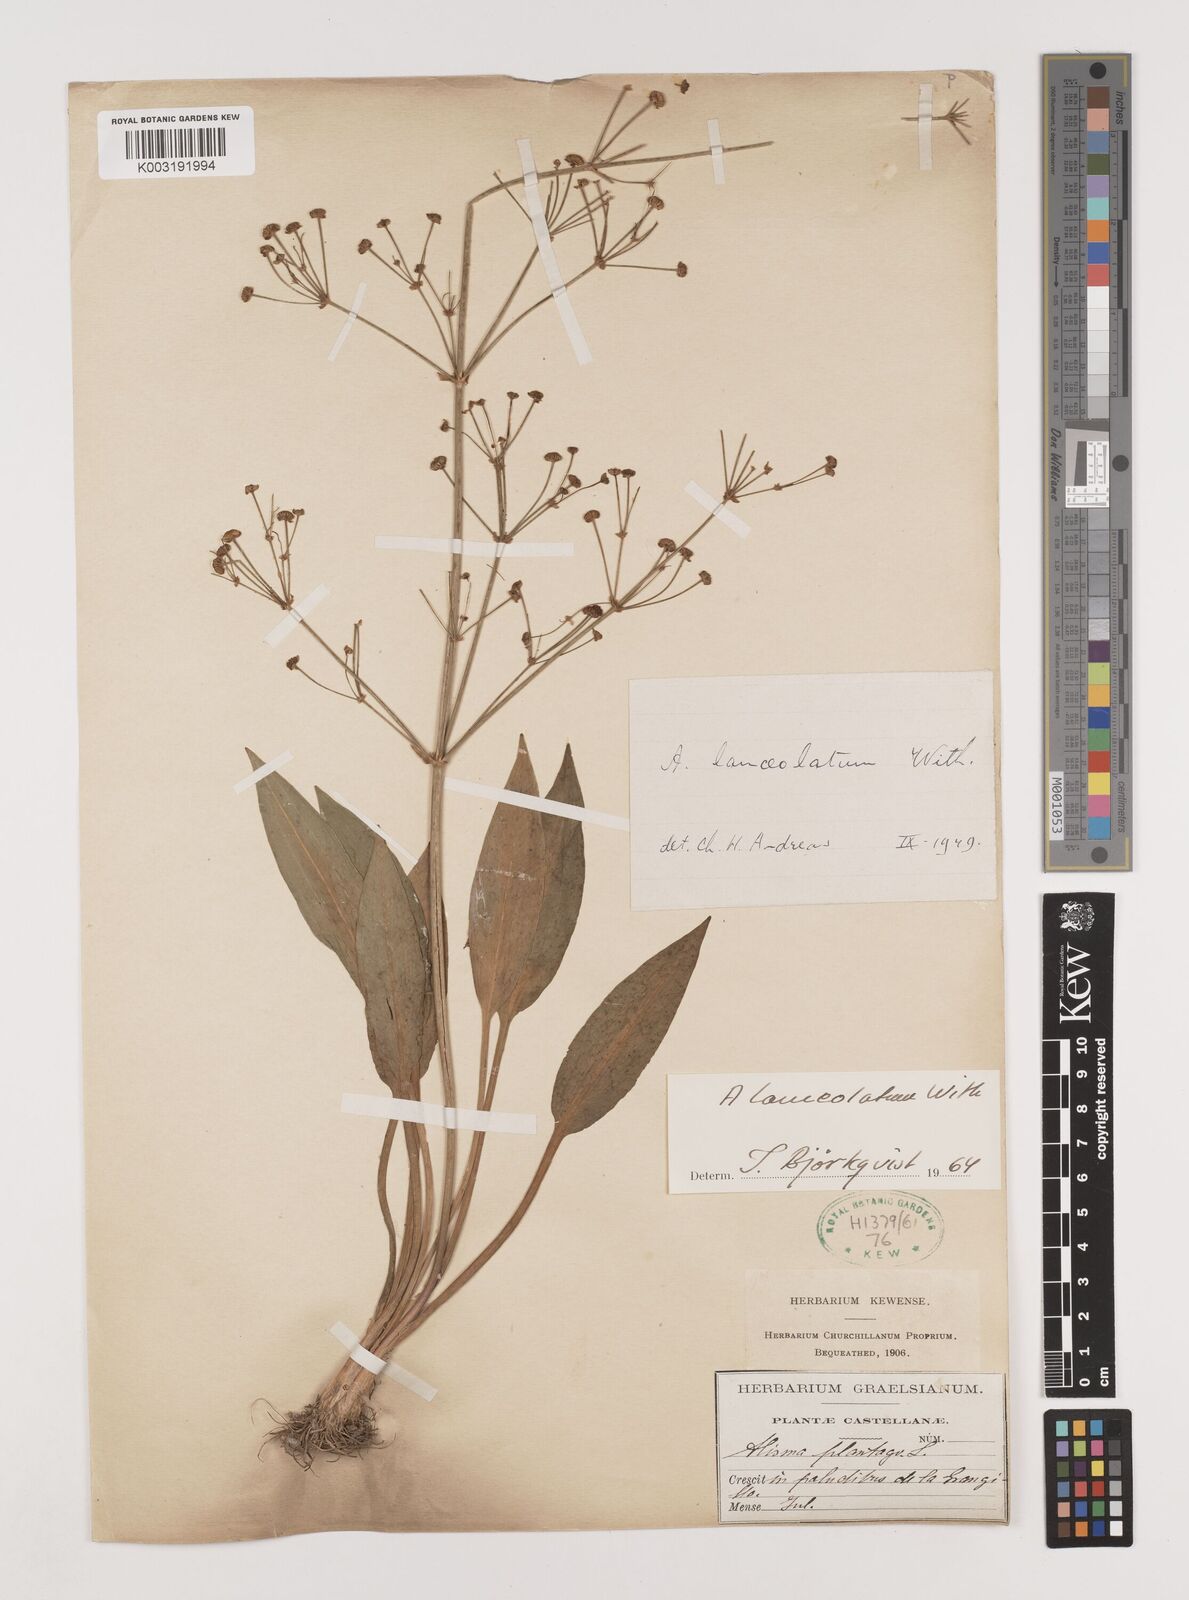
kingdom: Plantae
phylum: Tracheophyta
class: Liliopsida
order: Alismatales
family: Alismataceae
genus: Alisma
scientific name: Alisma lanceolatum
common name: Narrow-leaved water-plantain
